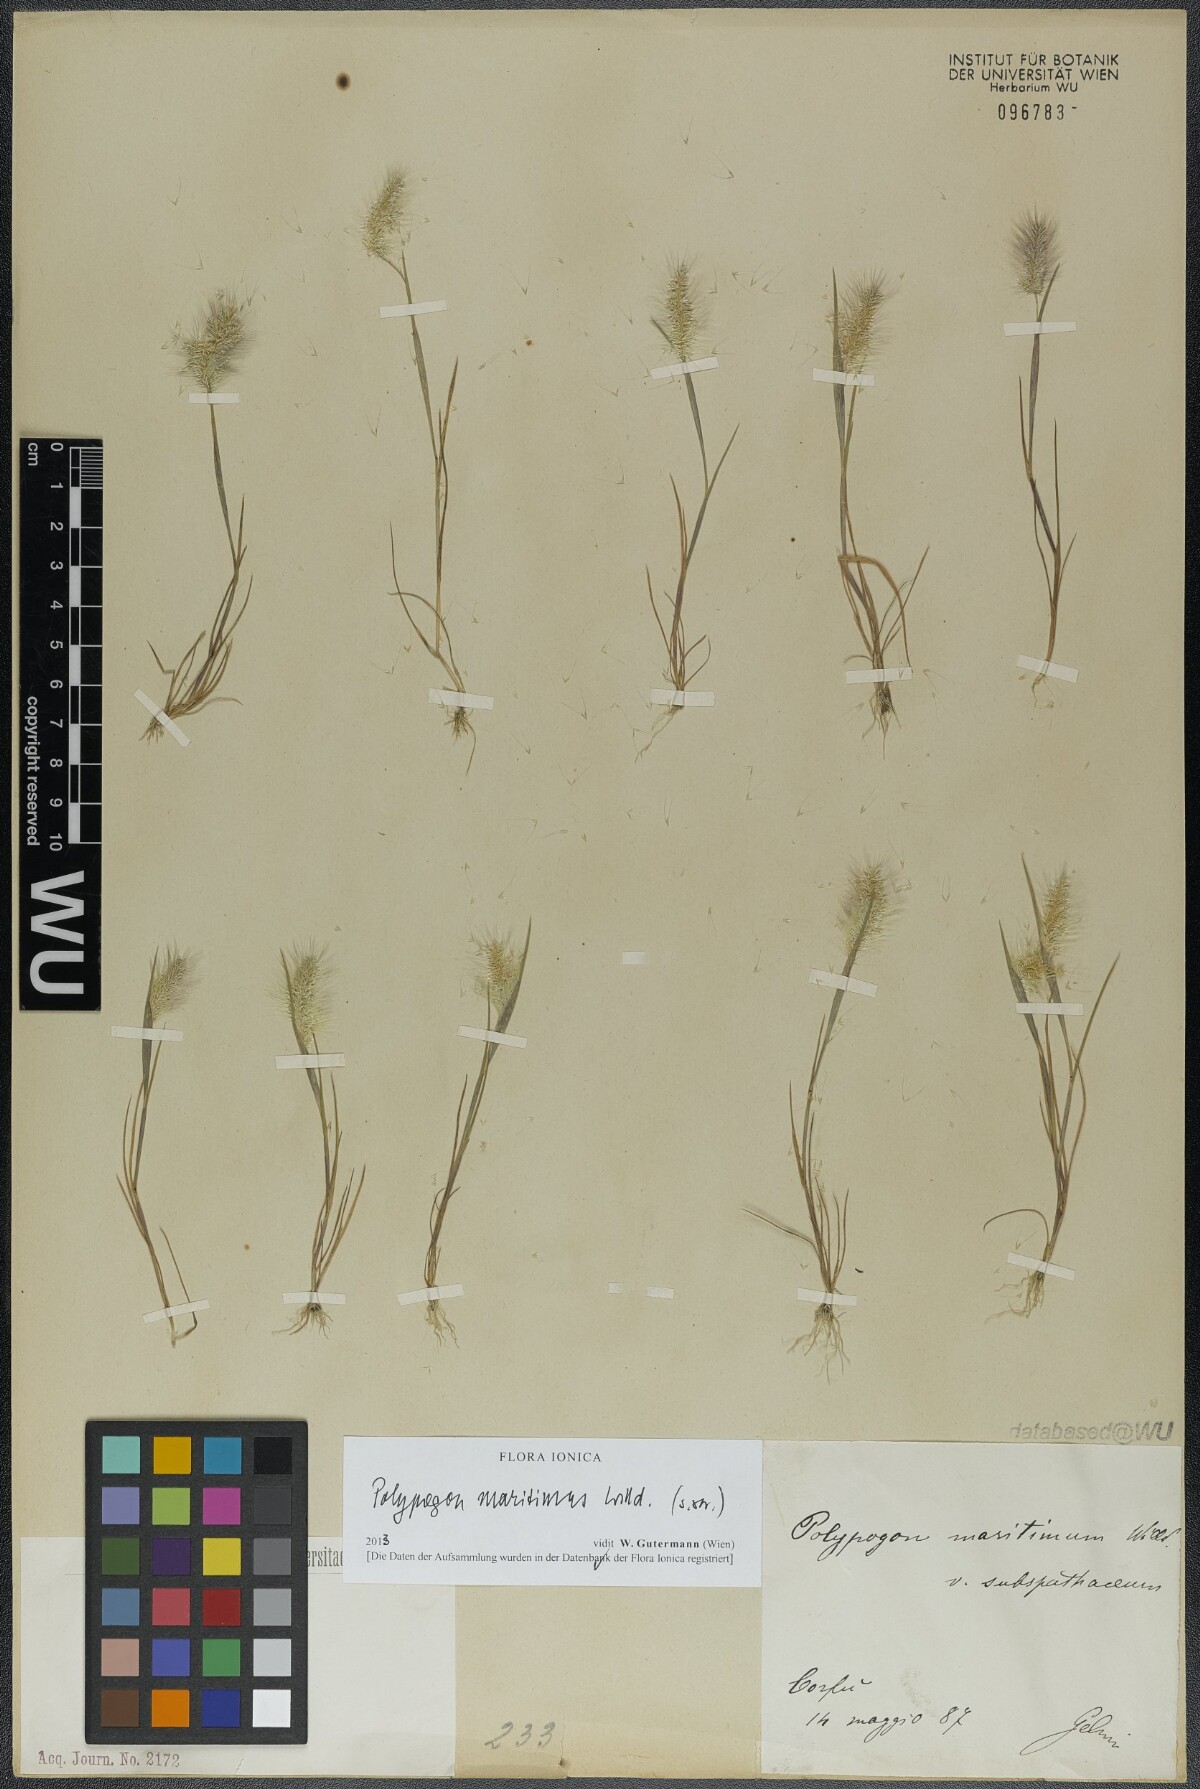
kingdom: Plantae
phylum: Tracheophyta
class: Liliopsida
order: Poales
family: Poaceae
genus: Polypogon
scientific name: Polypogon maritimus
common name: Mediterranean rabbitsfoot grass
